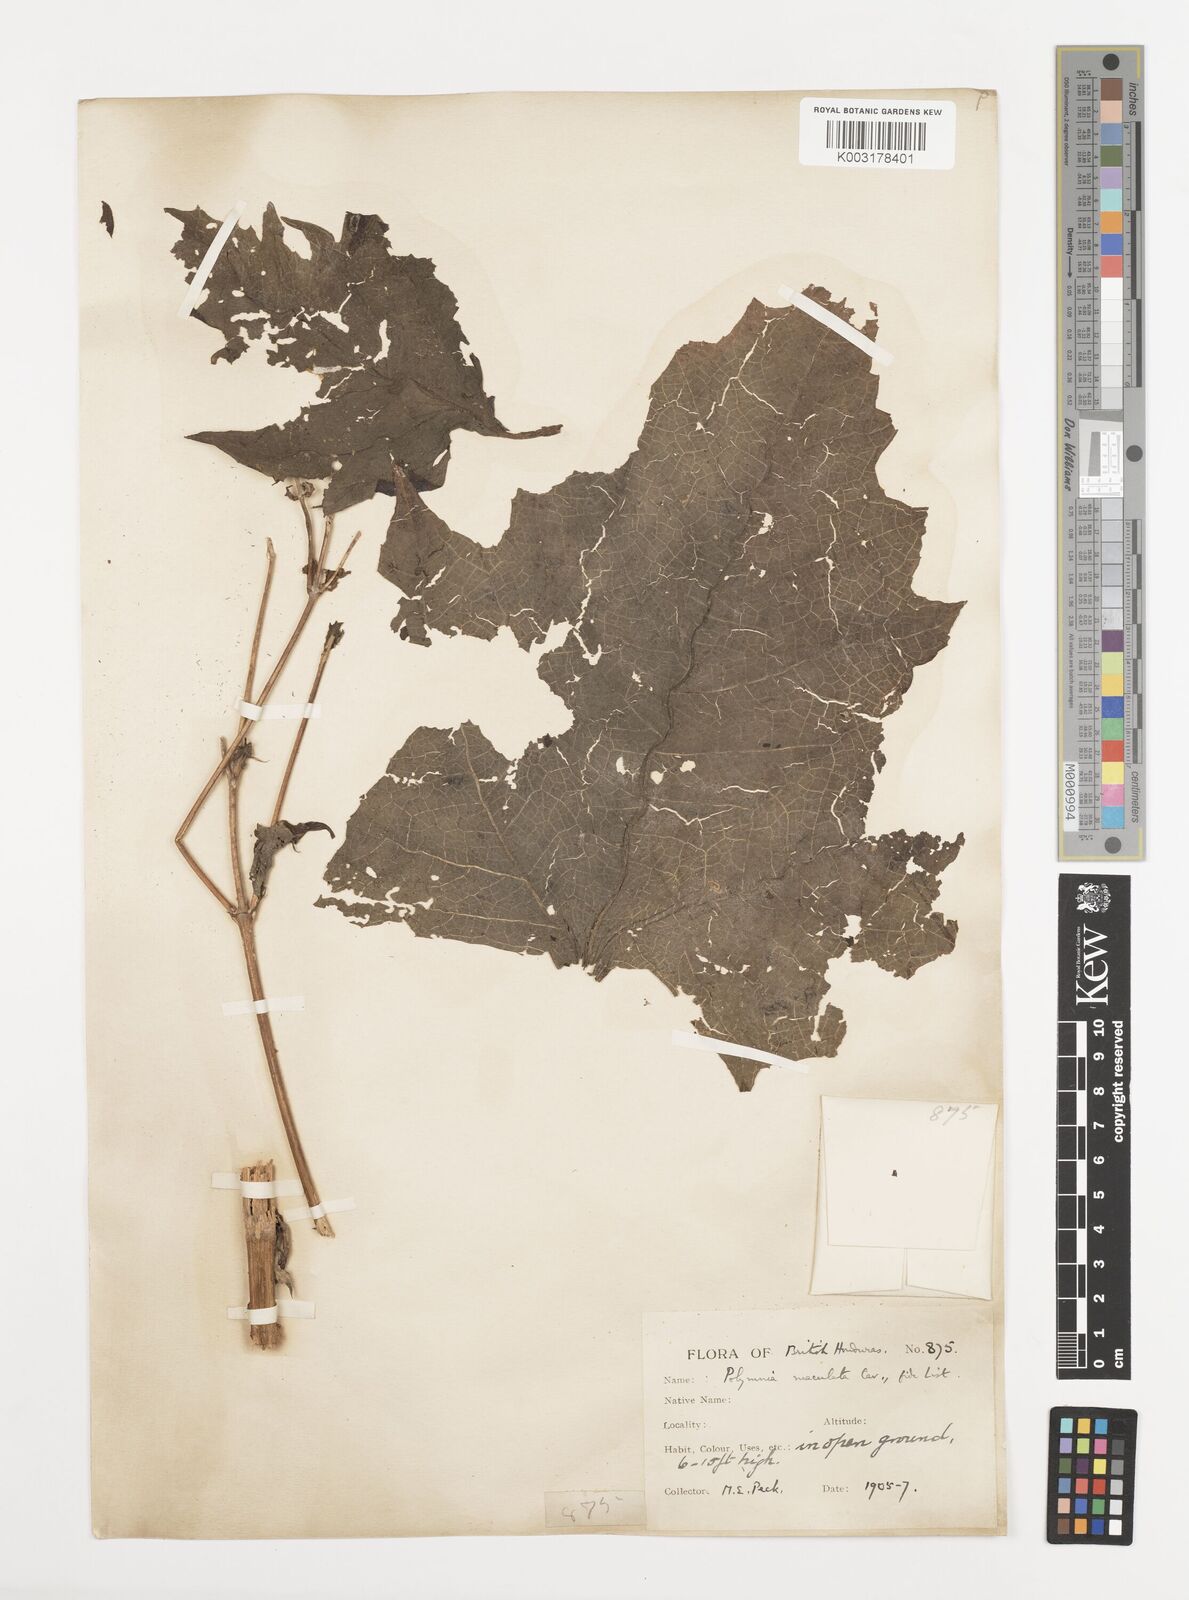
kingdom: Plantae
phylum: Tracheophyta
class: Magnoliopsida
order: Asterales
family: Asteraceae
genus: Smallanthus
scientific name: Smallanthus maculatus
